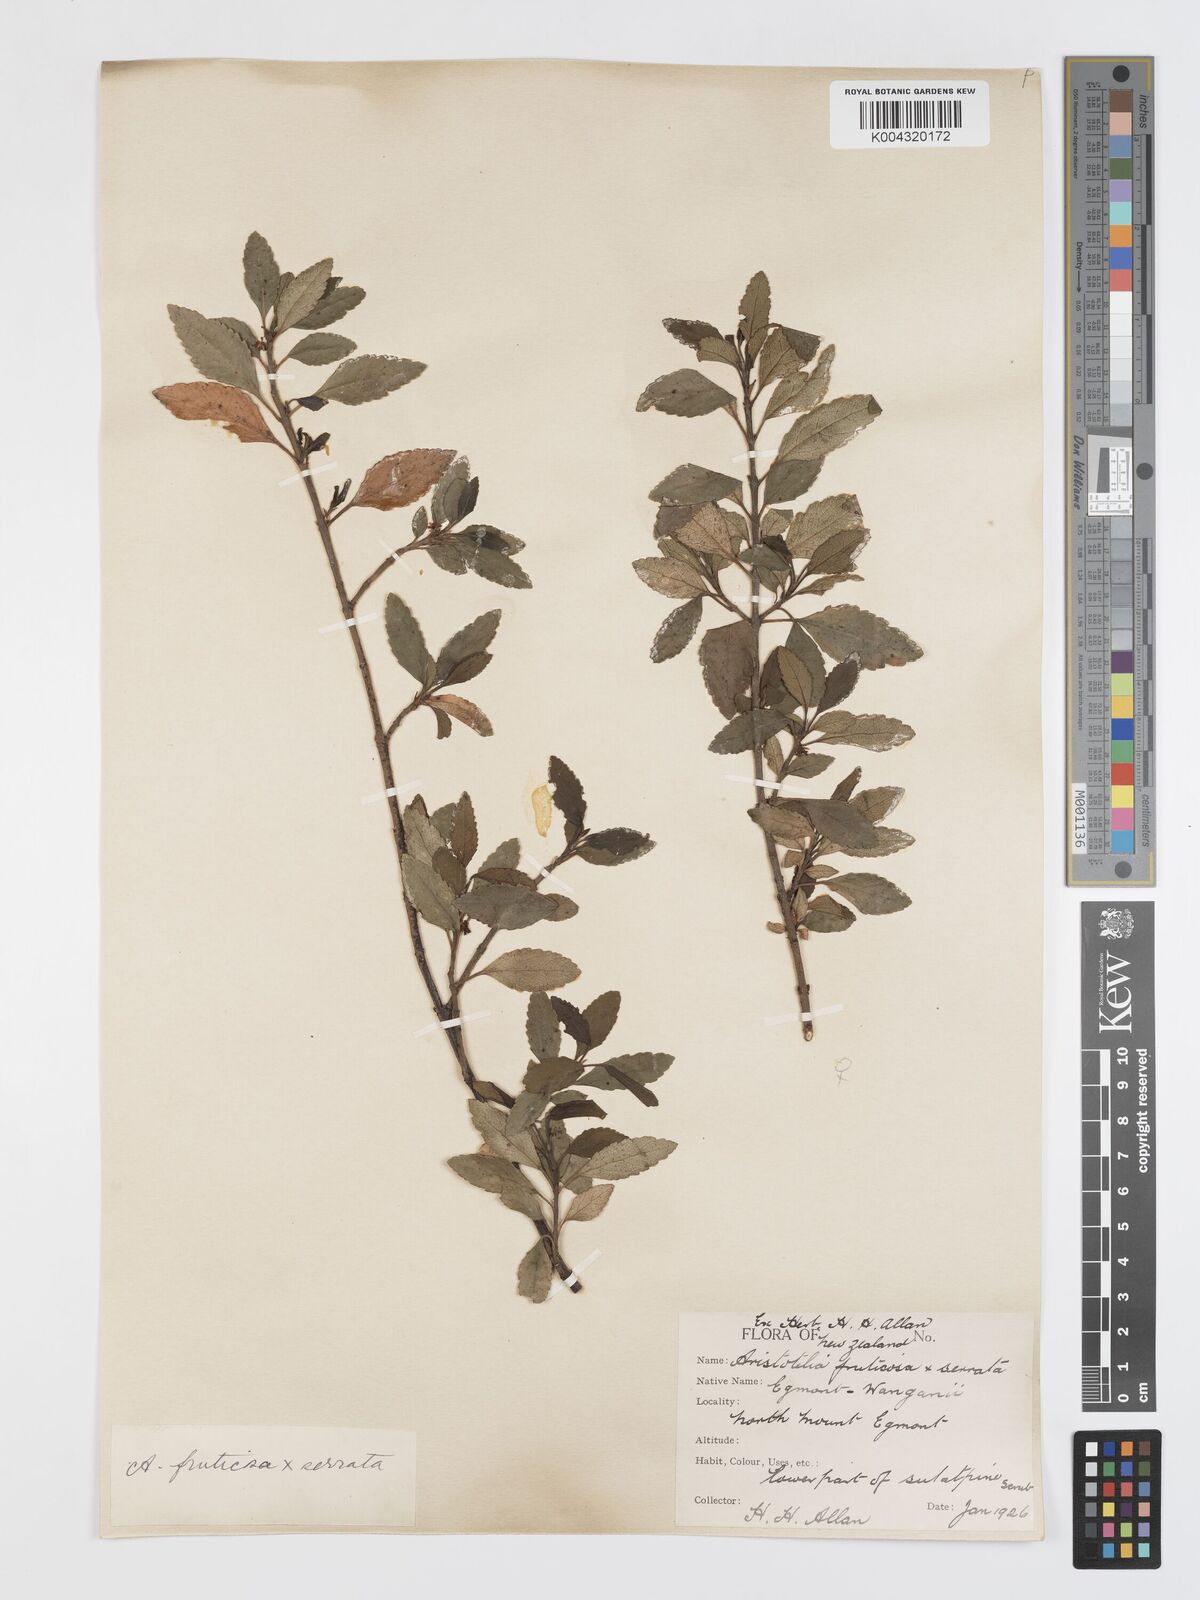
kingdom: Plantae
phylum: Tracheophyta
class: Magnoliopsida
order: Oxalidales
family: Elaeocarpaceae
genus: Aristotelia
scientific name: Aristotelia fruticosa
